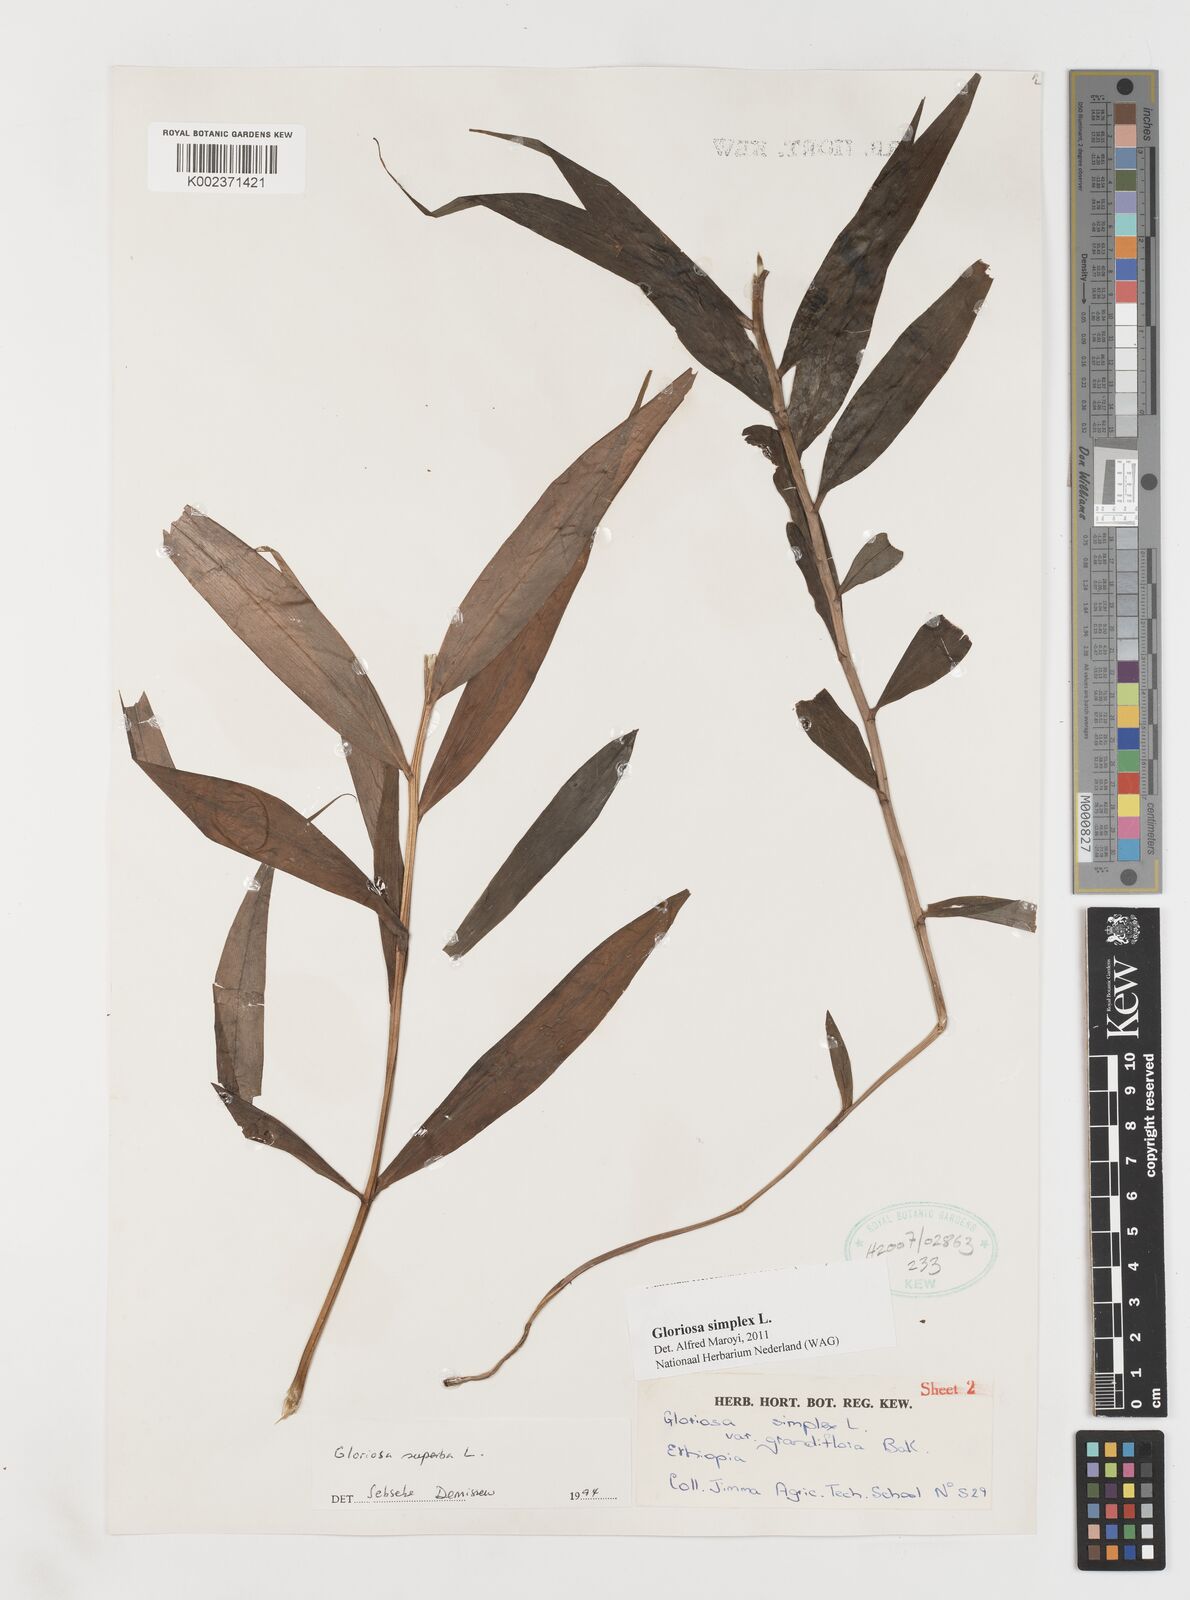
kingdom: Plantae
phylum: Tracheophyta
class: Liliopsida
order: Liliales
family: Colchicaceae
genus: Gloriosa
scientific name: Gloriosa simplex
